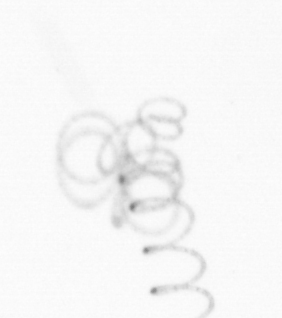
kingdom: Chromista
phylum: Ochrophyta
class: Bacillariophyceae
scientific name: Bacillariophyceae
